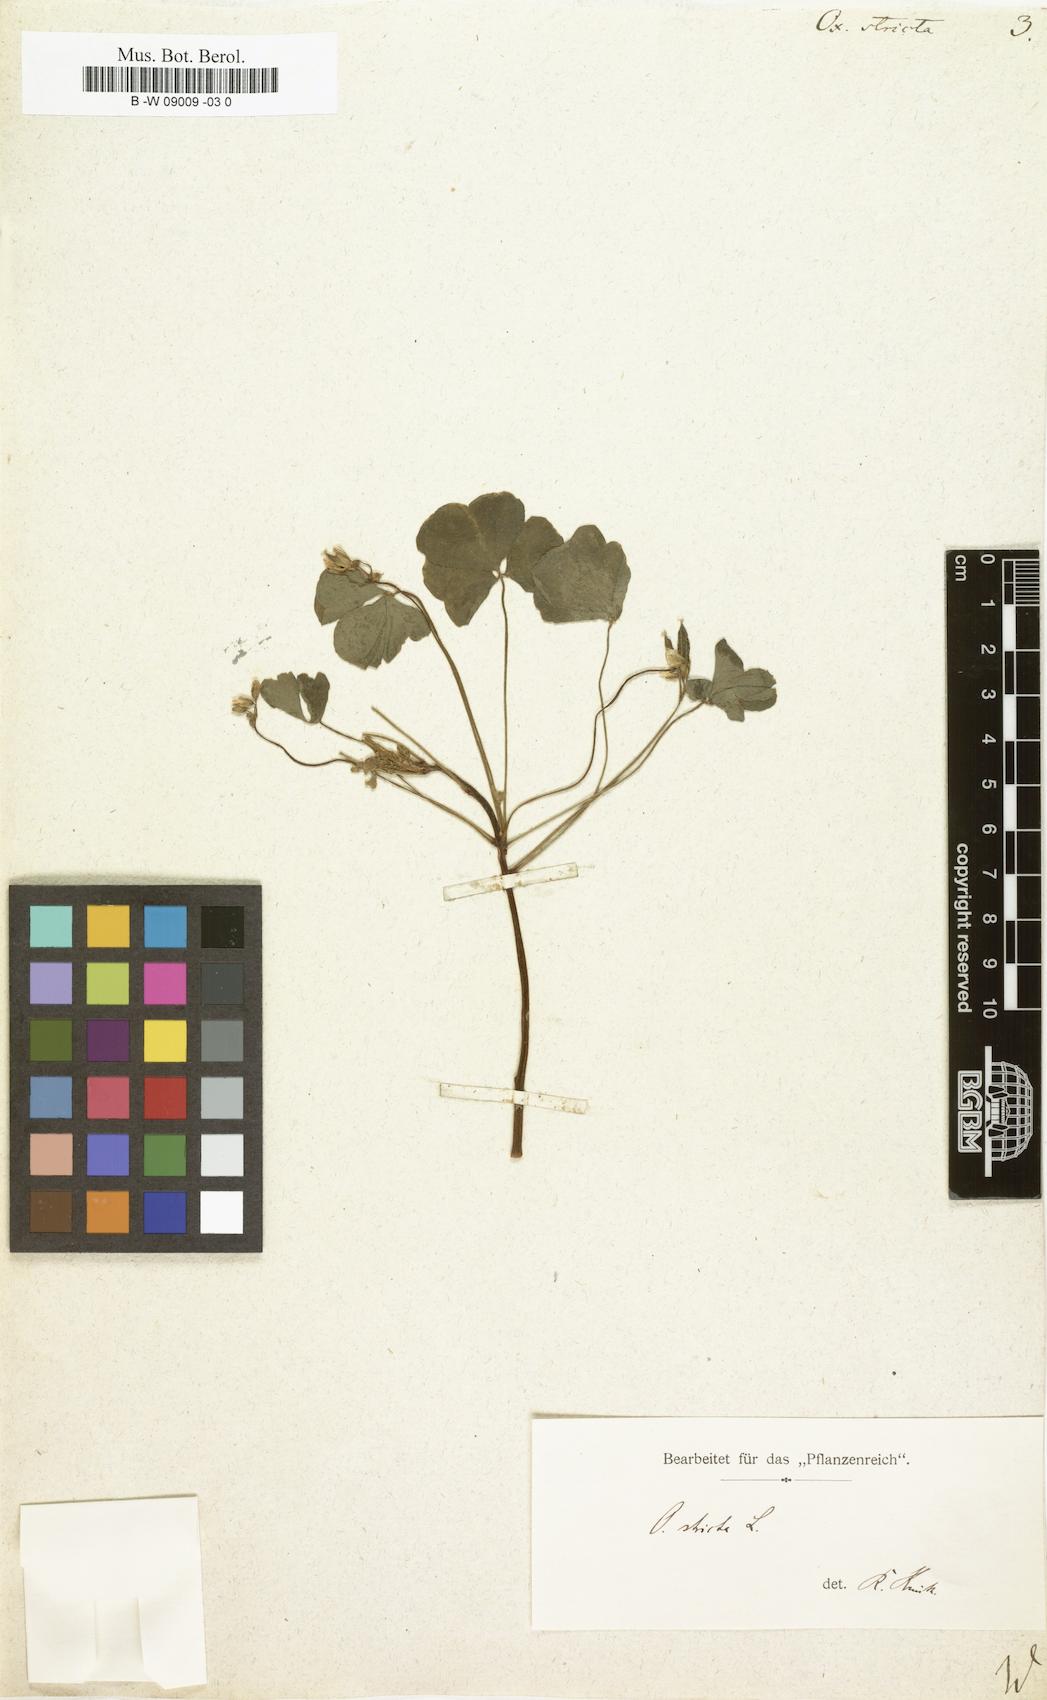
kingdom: Plantae
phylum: Tracheophyta
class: Magnoliopsida
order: Oxalidales
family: Oxalidaceae
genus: Oxalis
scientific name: Oxalis stricta
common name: Upright yellow-sorrel
